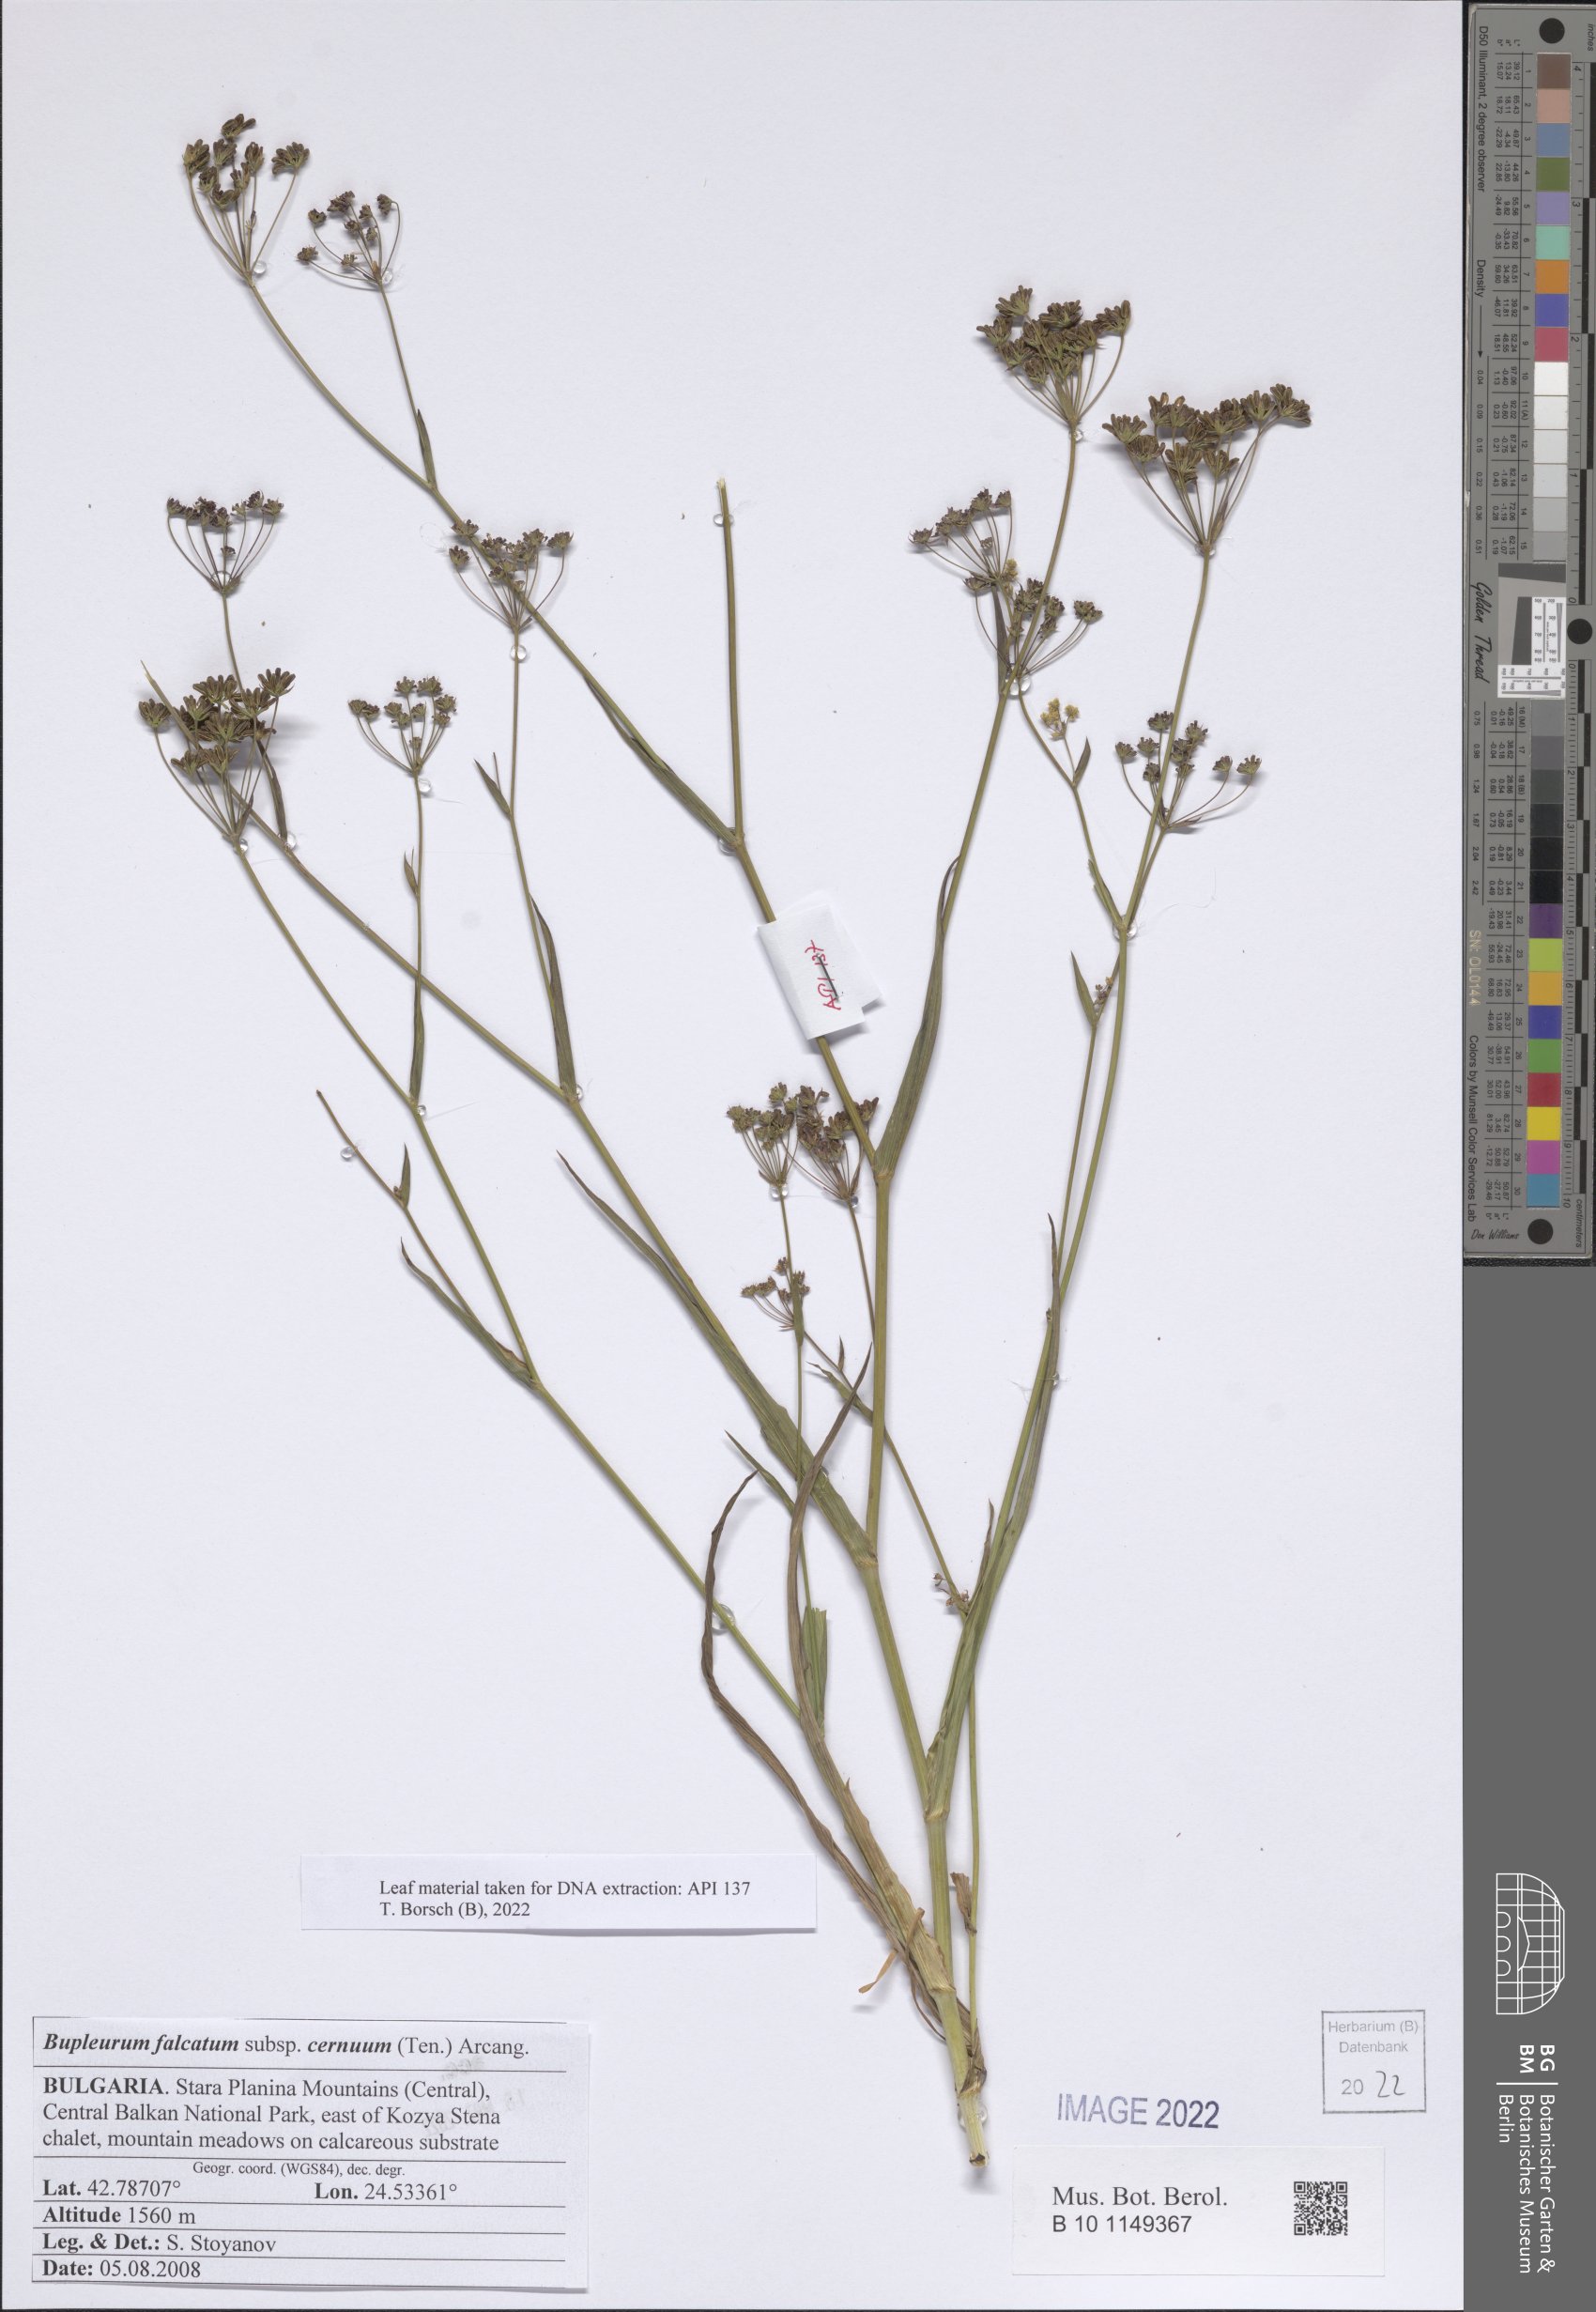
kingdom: Plantae
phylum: Tracheophyta
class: Magnoliopsida
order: Apiales
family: Apiaceae
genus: Bupleurum
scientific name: Bupleurum exaltatum
